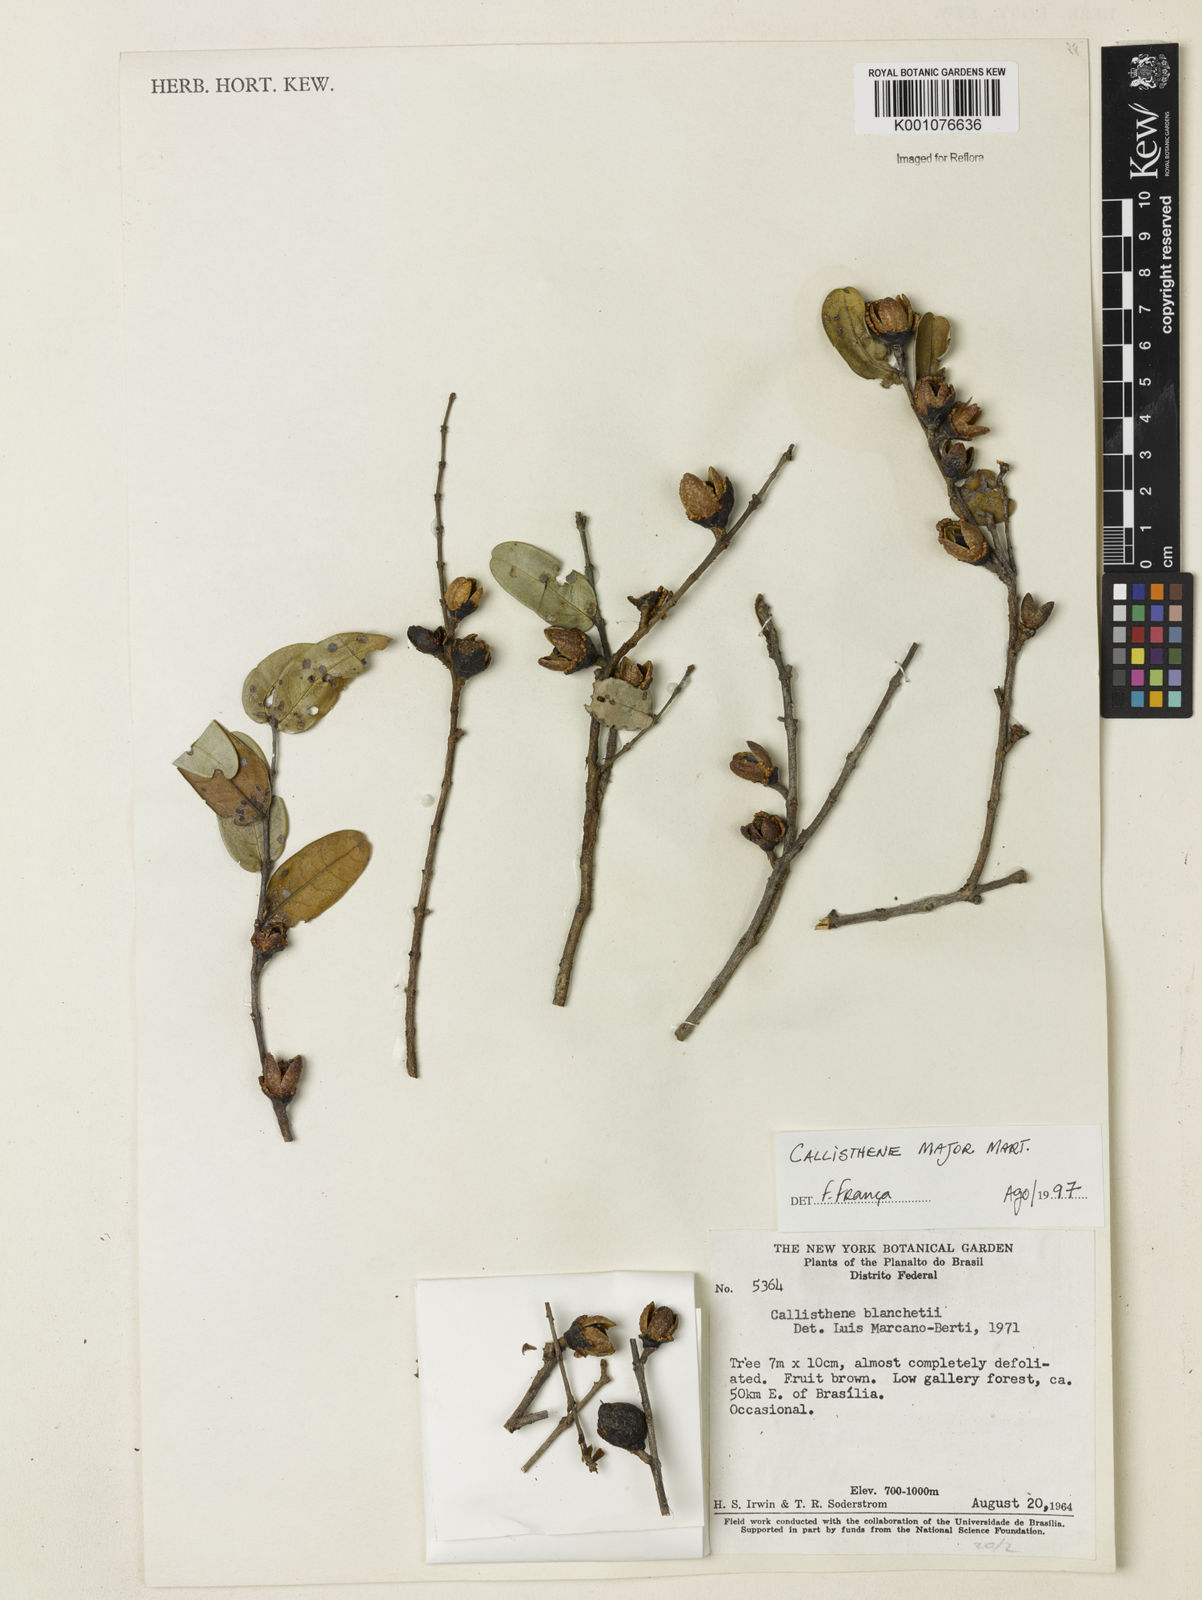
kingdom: Plantae
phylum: Tracheophyta
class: Magnoliopsida
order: Myrtales
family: Vochysiaceae
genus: Callisthene
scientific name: Callisthene major
